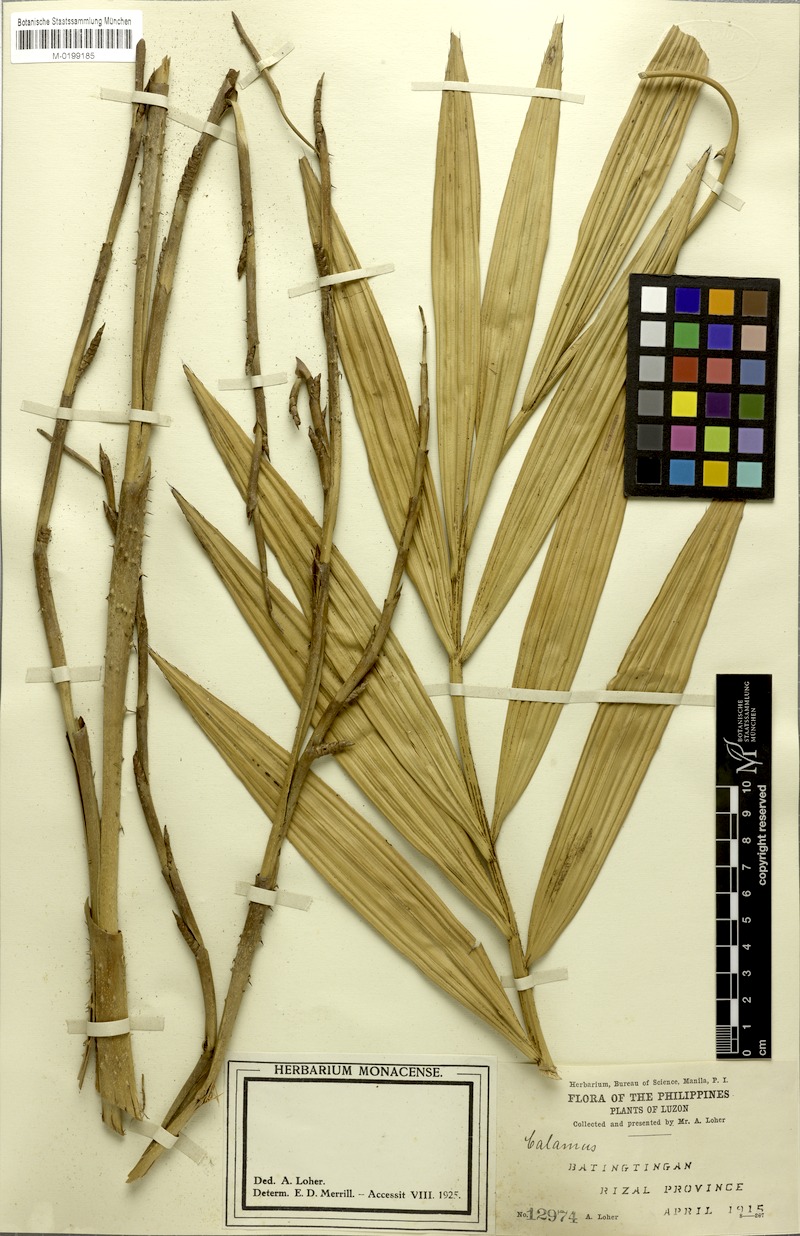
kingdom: Plantae
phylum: Tracheophyta
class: Liliopsida
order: Arecales
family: Arecaceae
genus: Calamus
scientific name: Calamus manillensis
